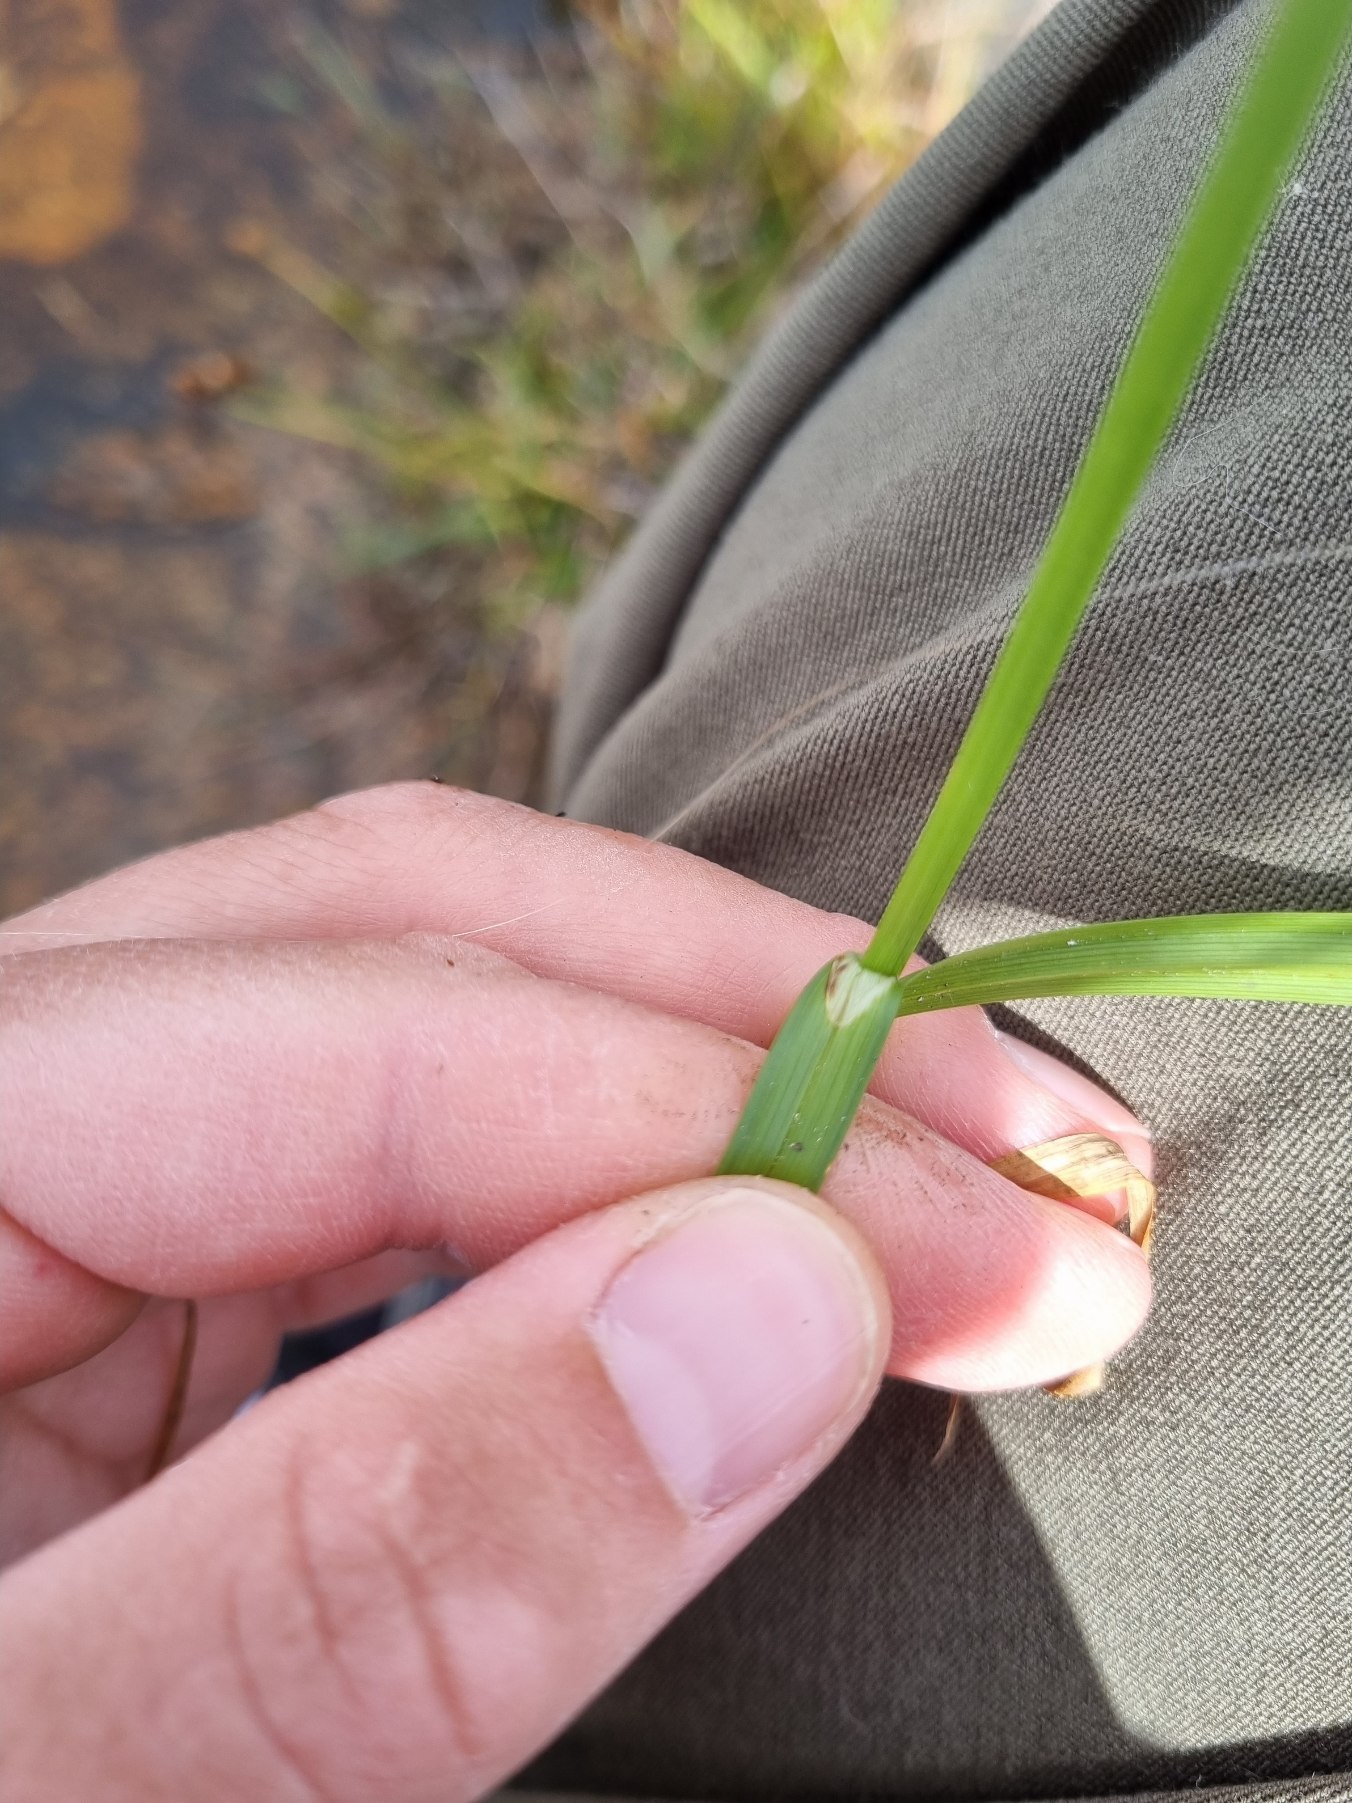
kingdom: Plantae
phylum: Tracheophyta
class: Liliopsida
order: Poales
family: Cyperaceae
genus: Carex
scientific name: Carex otrubae
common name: Sylt-star
